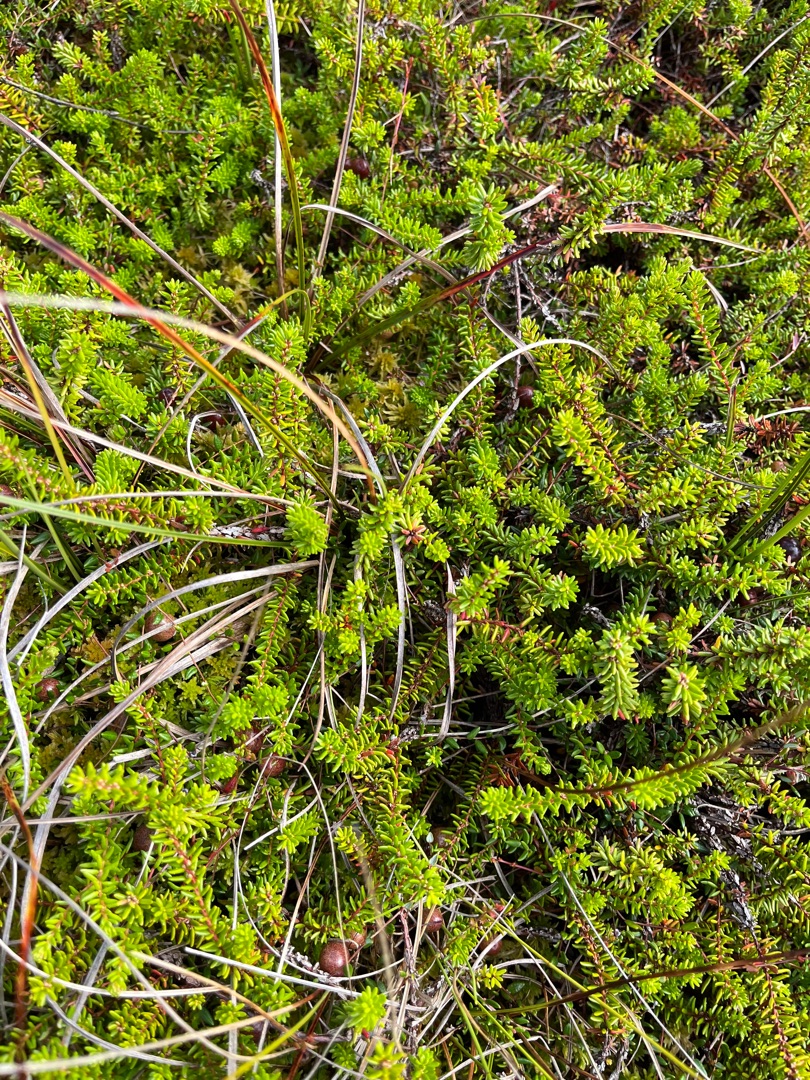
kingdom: Plantae
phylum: Tracheophyta
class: Magnoliopsida
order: Ericales
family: Ericaceae
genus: Empetrum
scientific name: Empetrum nigrum
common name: Revling
